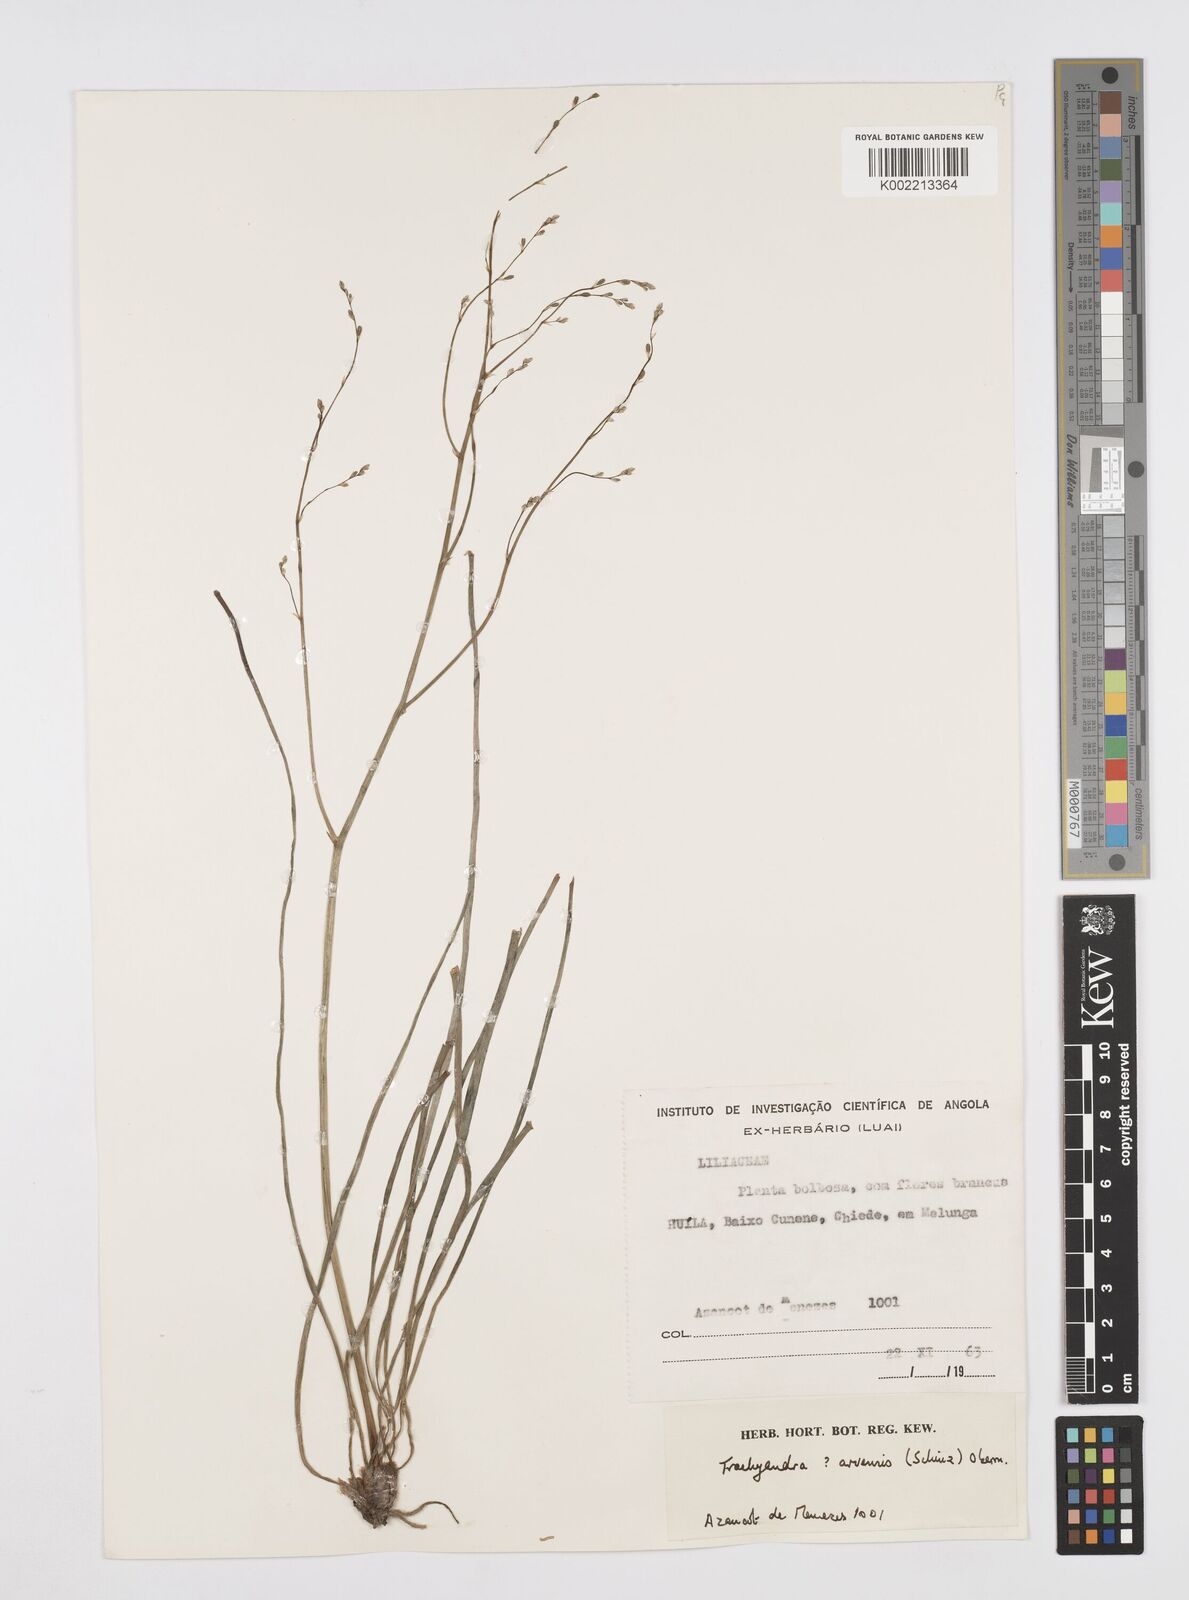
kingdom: Plantae
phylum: Tracheophyta
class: Liliopsida
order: Asparagales
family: Asphodelaceae
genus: Trachyandra
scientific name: Trachyandra arvensis
